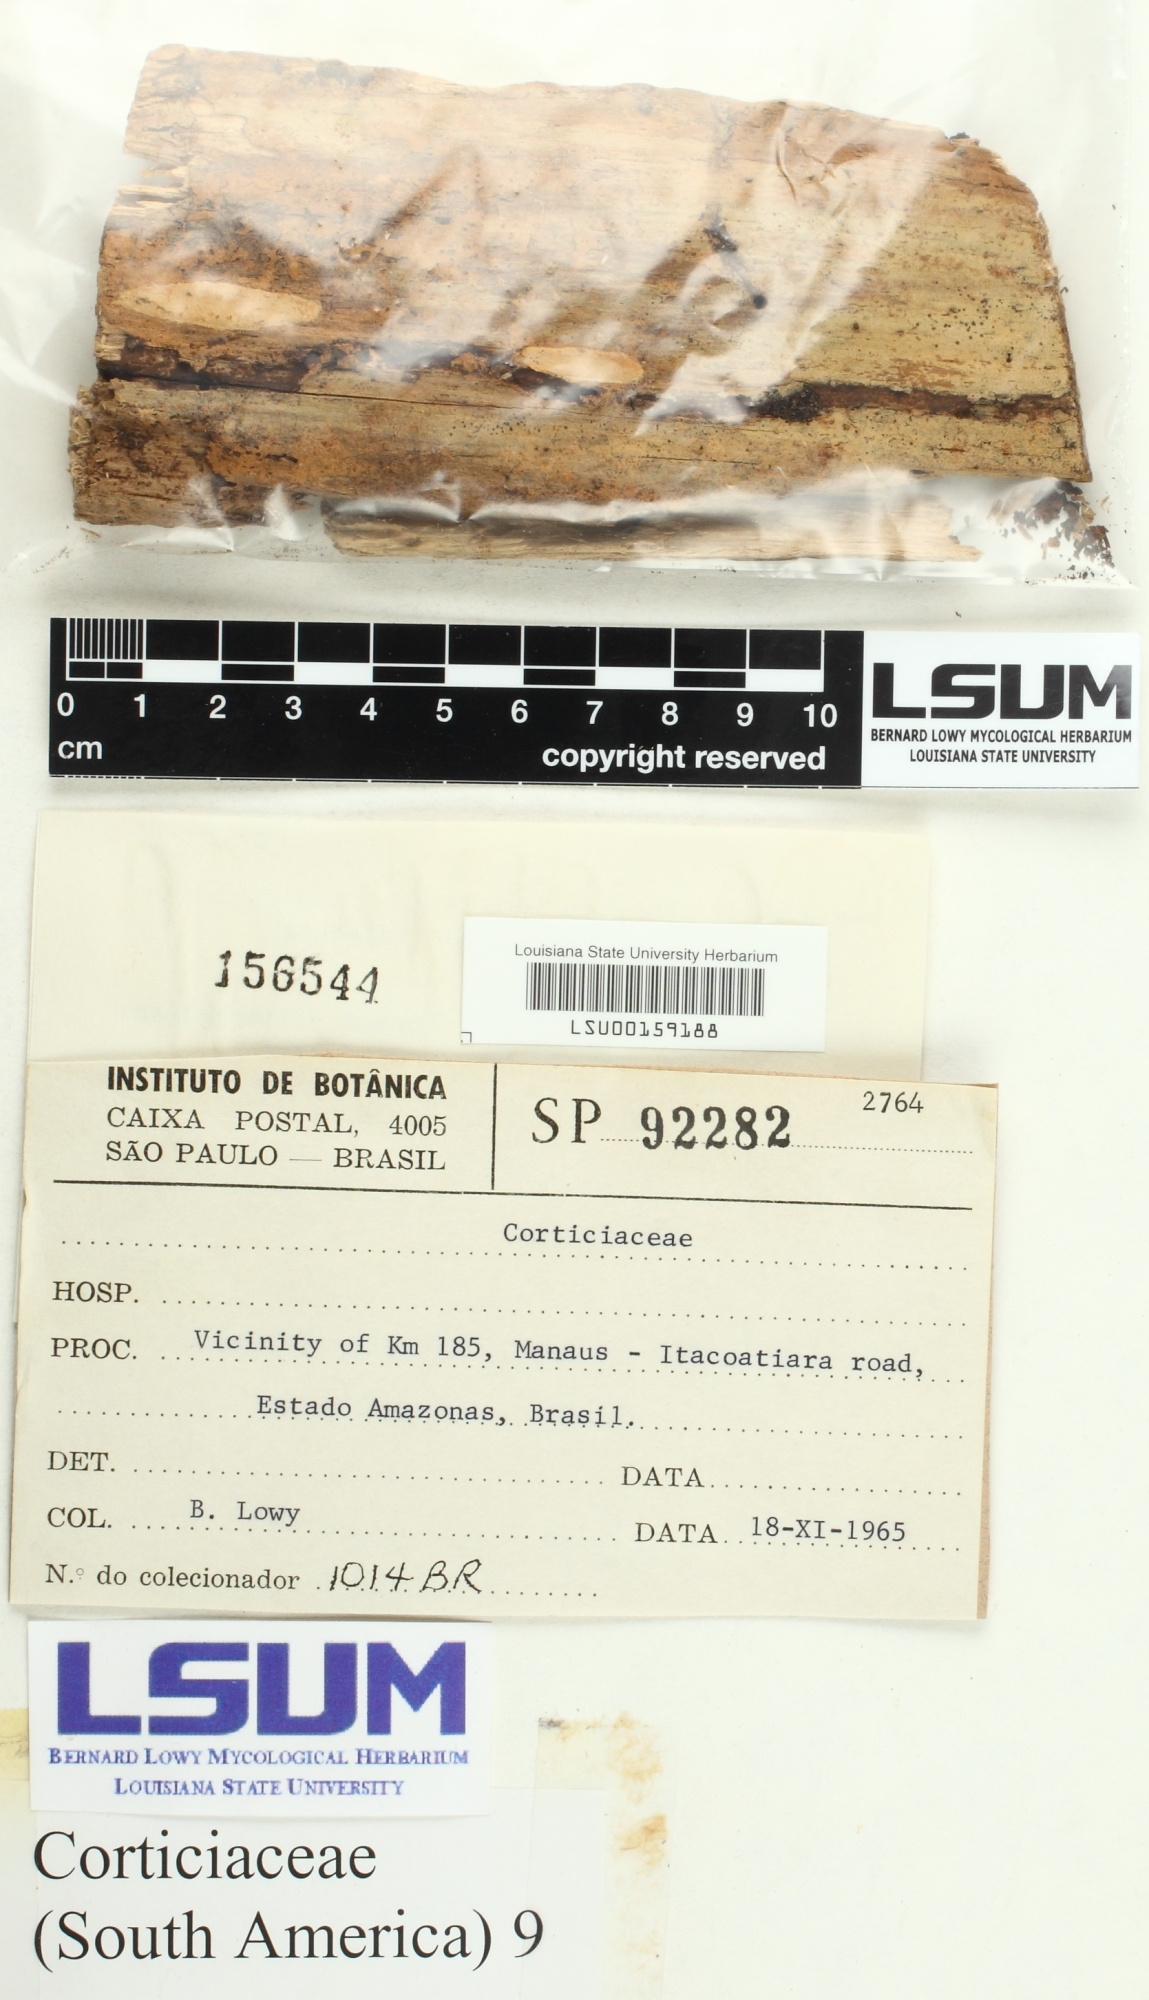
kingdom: Fungi
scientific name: Fungi
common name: Fungi
